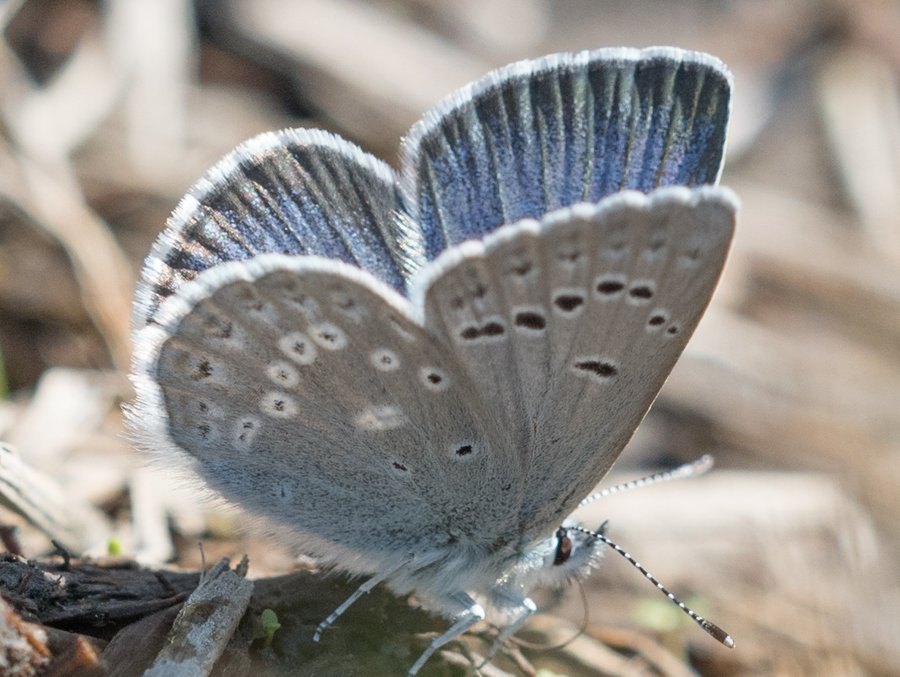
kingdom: Animalia
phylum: Arthropoda
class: Insecta
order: Lepidoptera
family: Lycaenidae
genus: Icaricia
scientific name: Icaricia icarioides
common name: Boisduval's Blue
